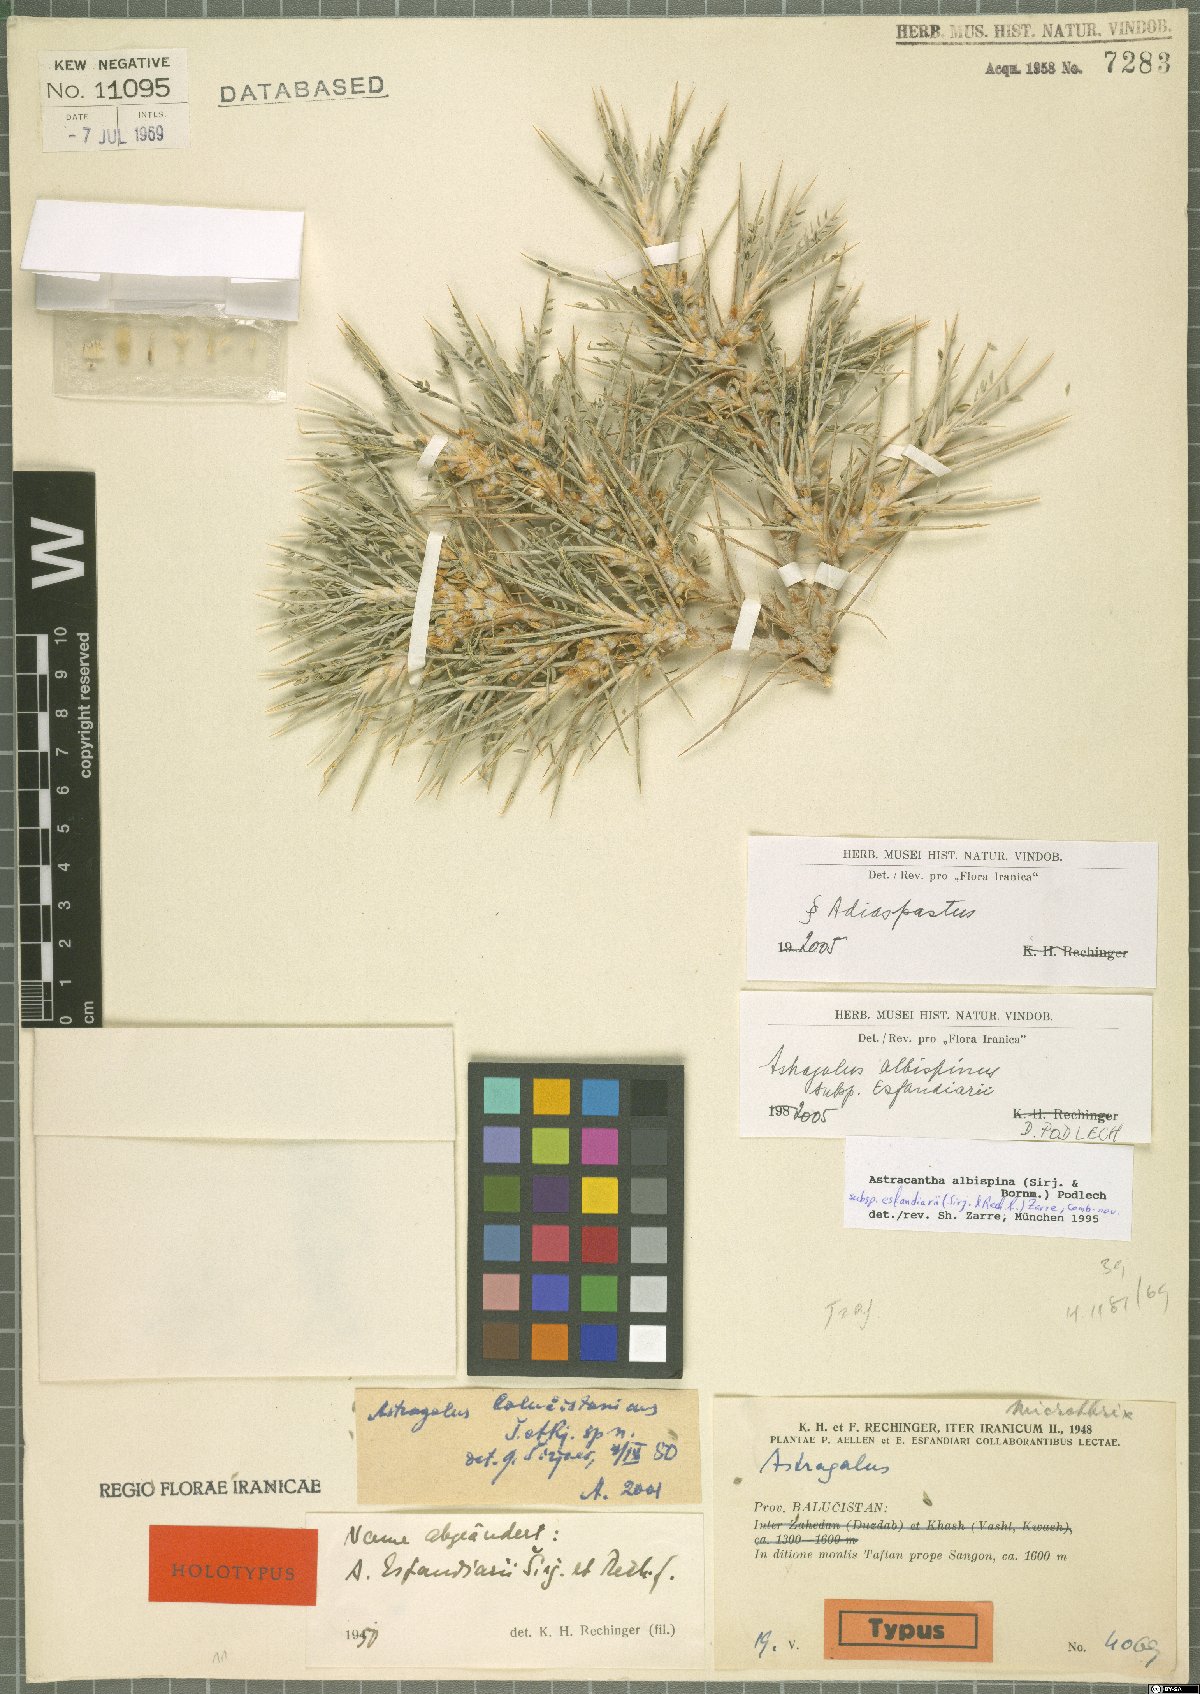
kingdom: Plantae
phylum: Tracheophyta
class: Magnoliopsida
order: Fabales
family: Fabaceae
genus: Astragalus
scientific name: Astragalus albispinus
